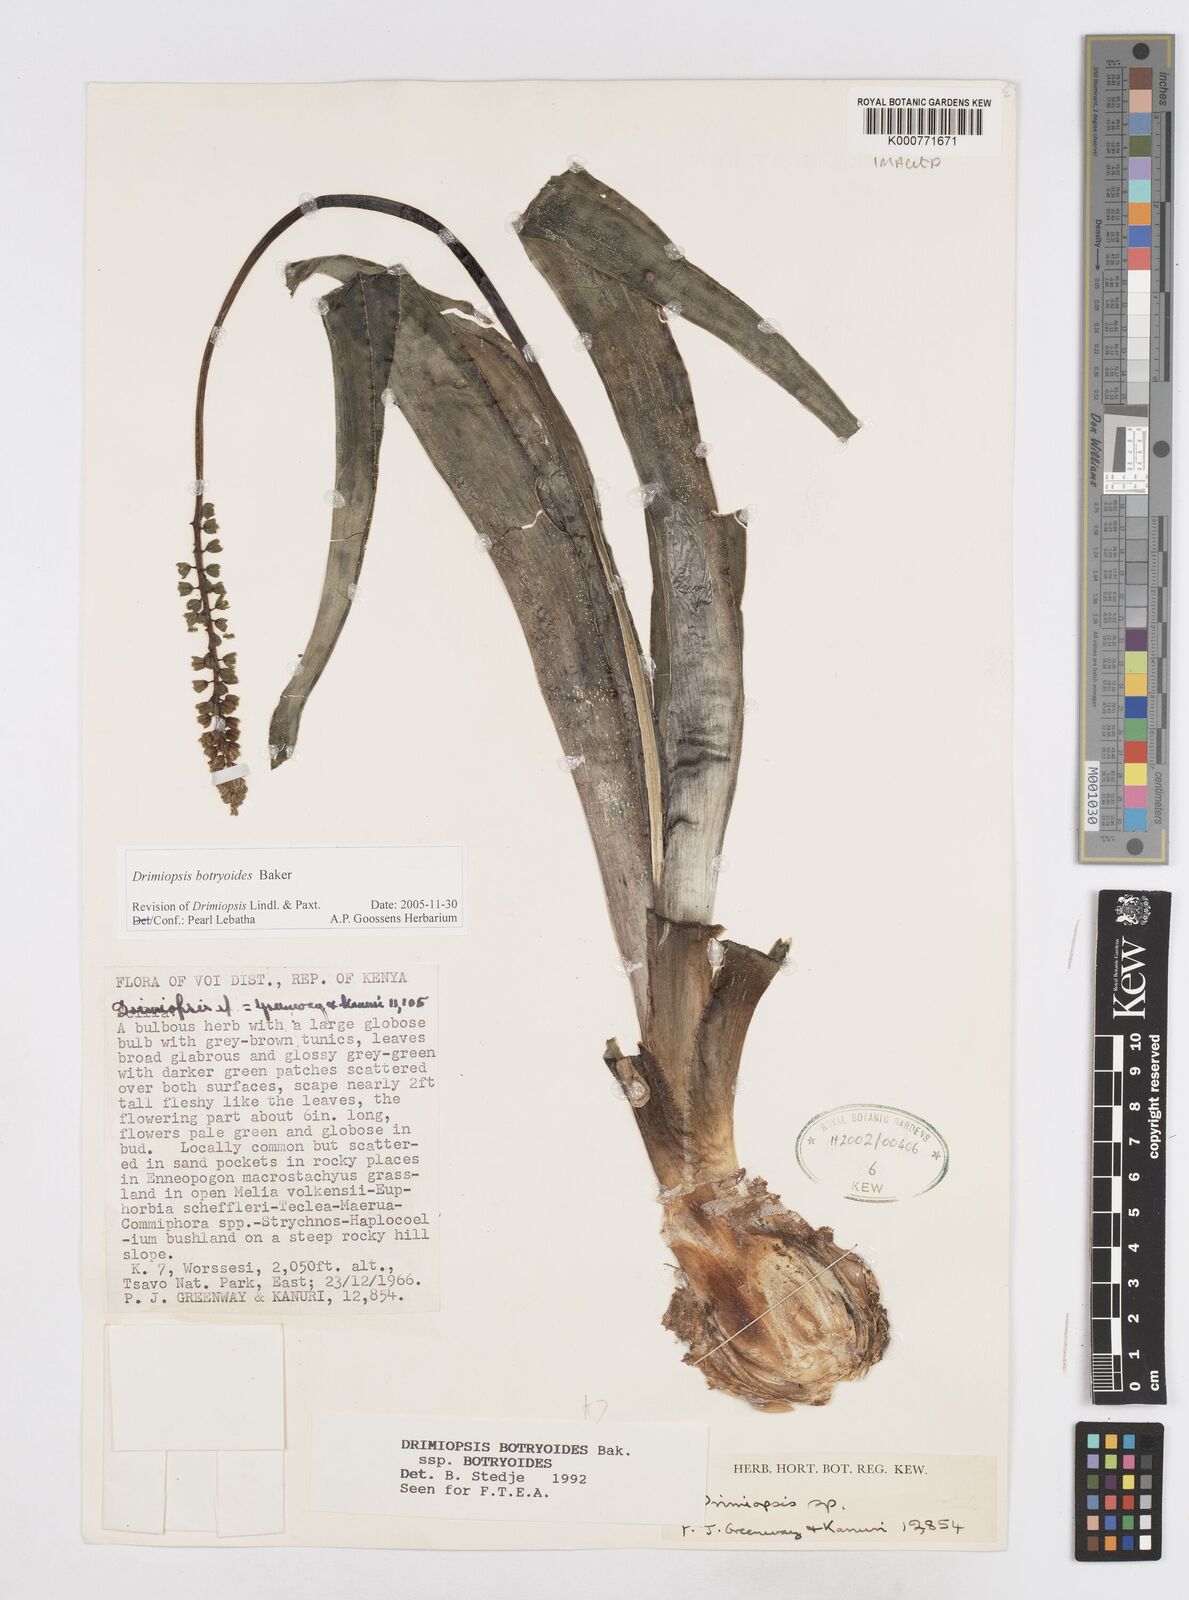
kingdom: Plantae
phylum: Tracheophyta
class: Liliopsida
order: Asparagales
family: Asparagaceae
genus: Drimiopsis
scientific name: Drimiopsis botryoides
